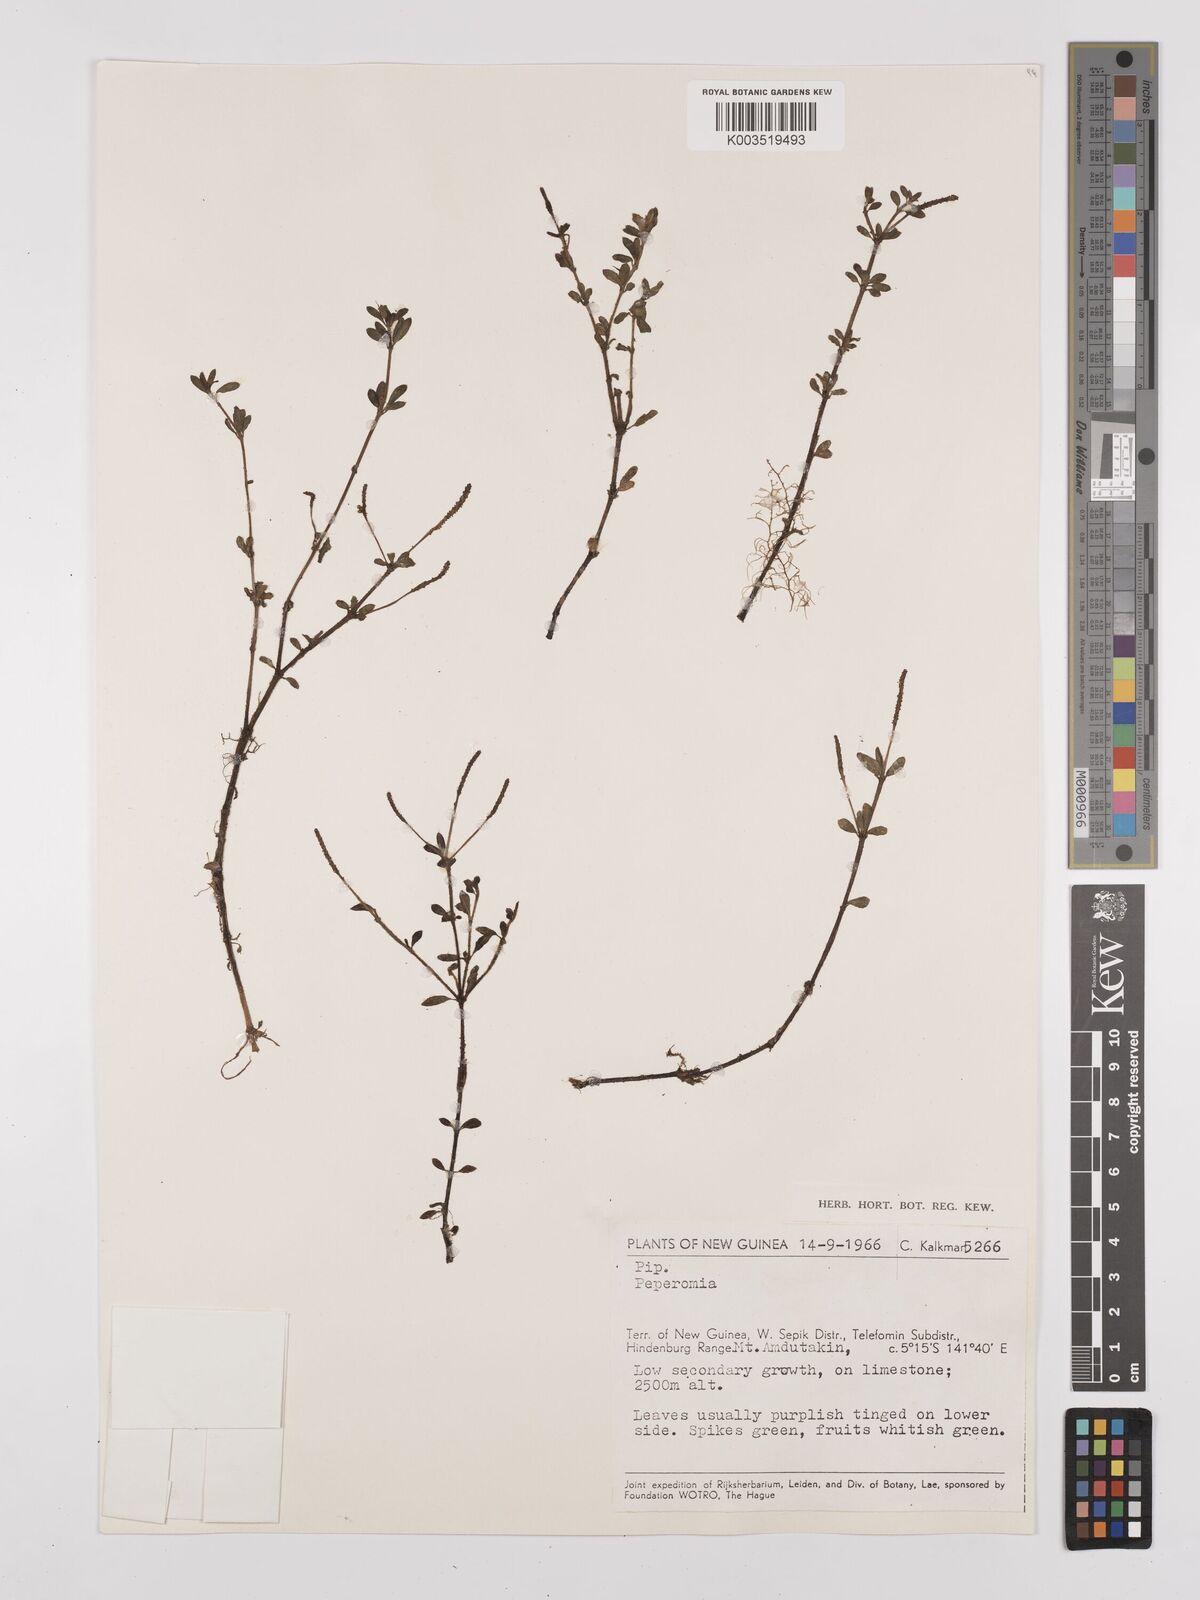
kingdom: Plantae
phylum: Tracheophyta
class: Magnoliopsida
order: Piperales
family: Piperaceae
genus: Peperomia
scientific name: Peperomia
